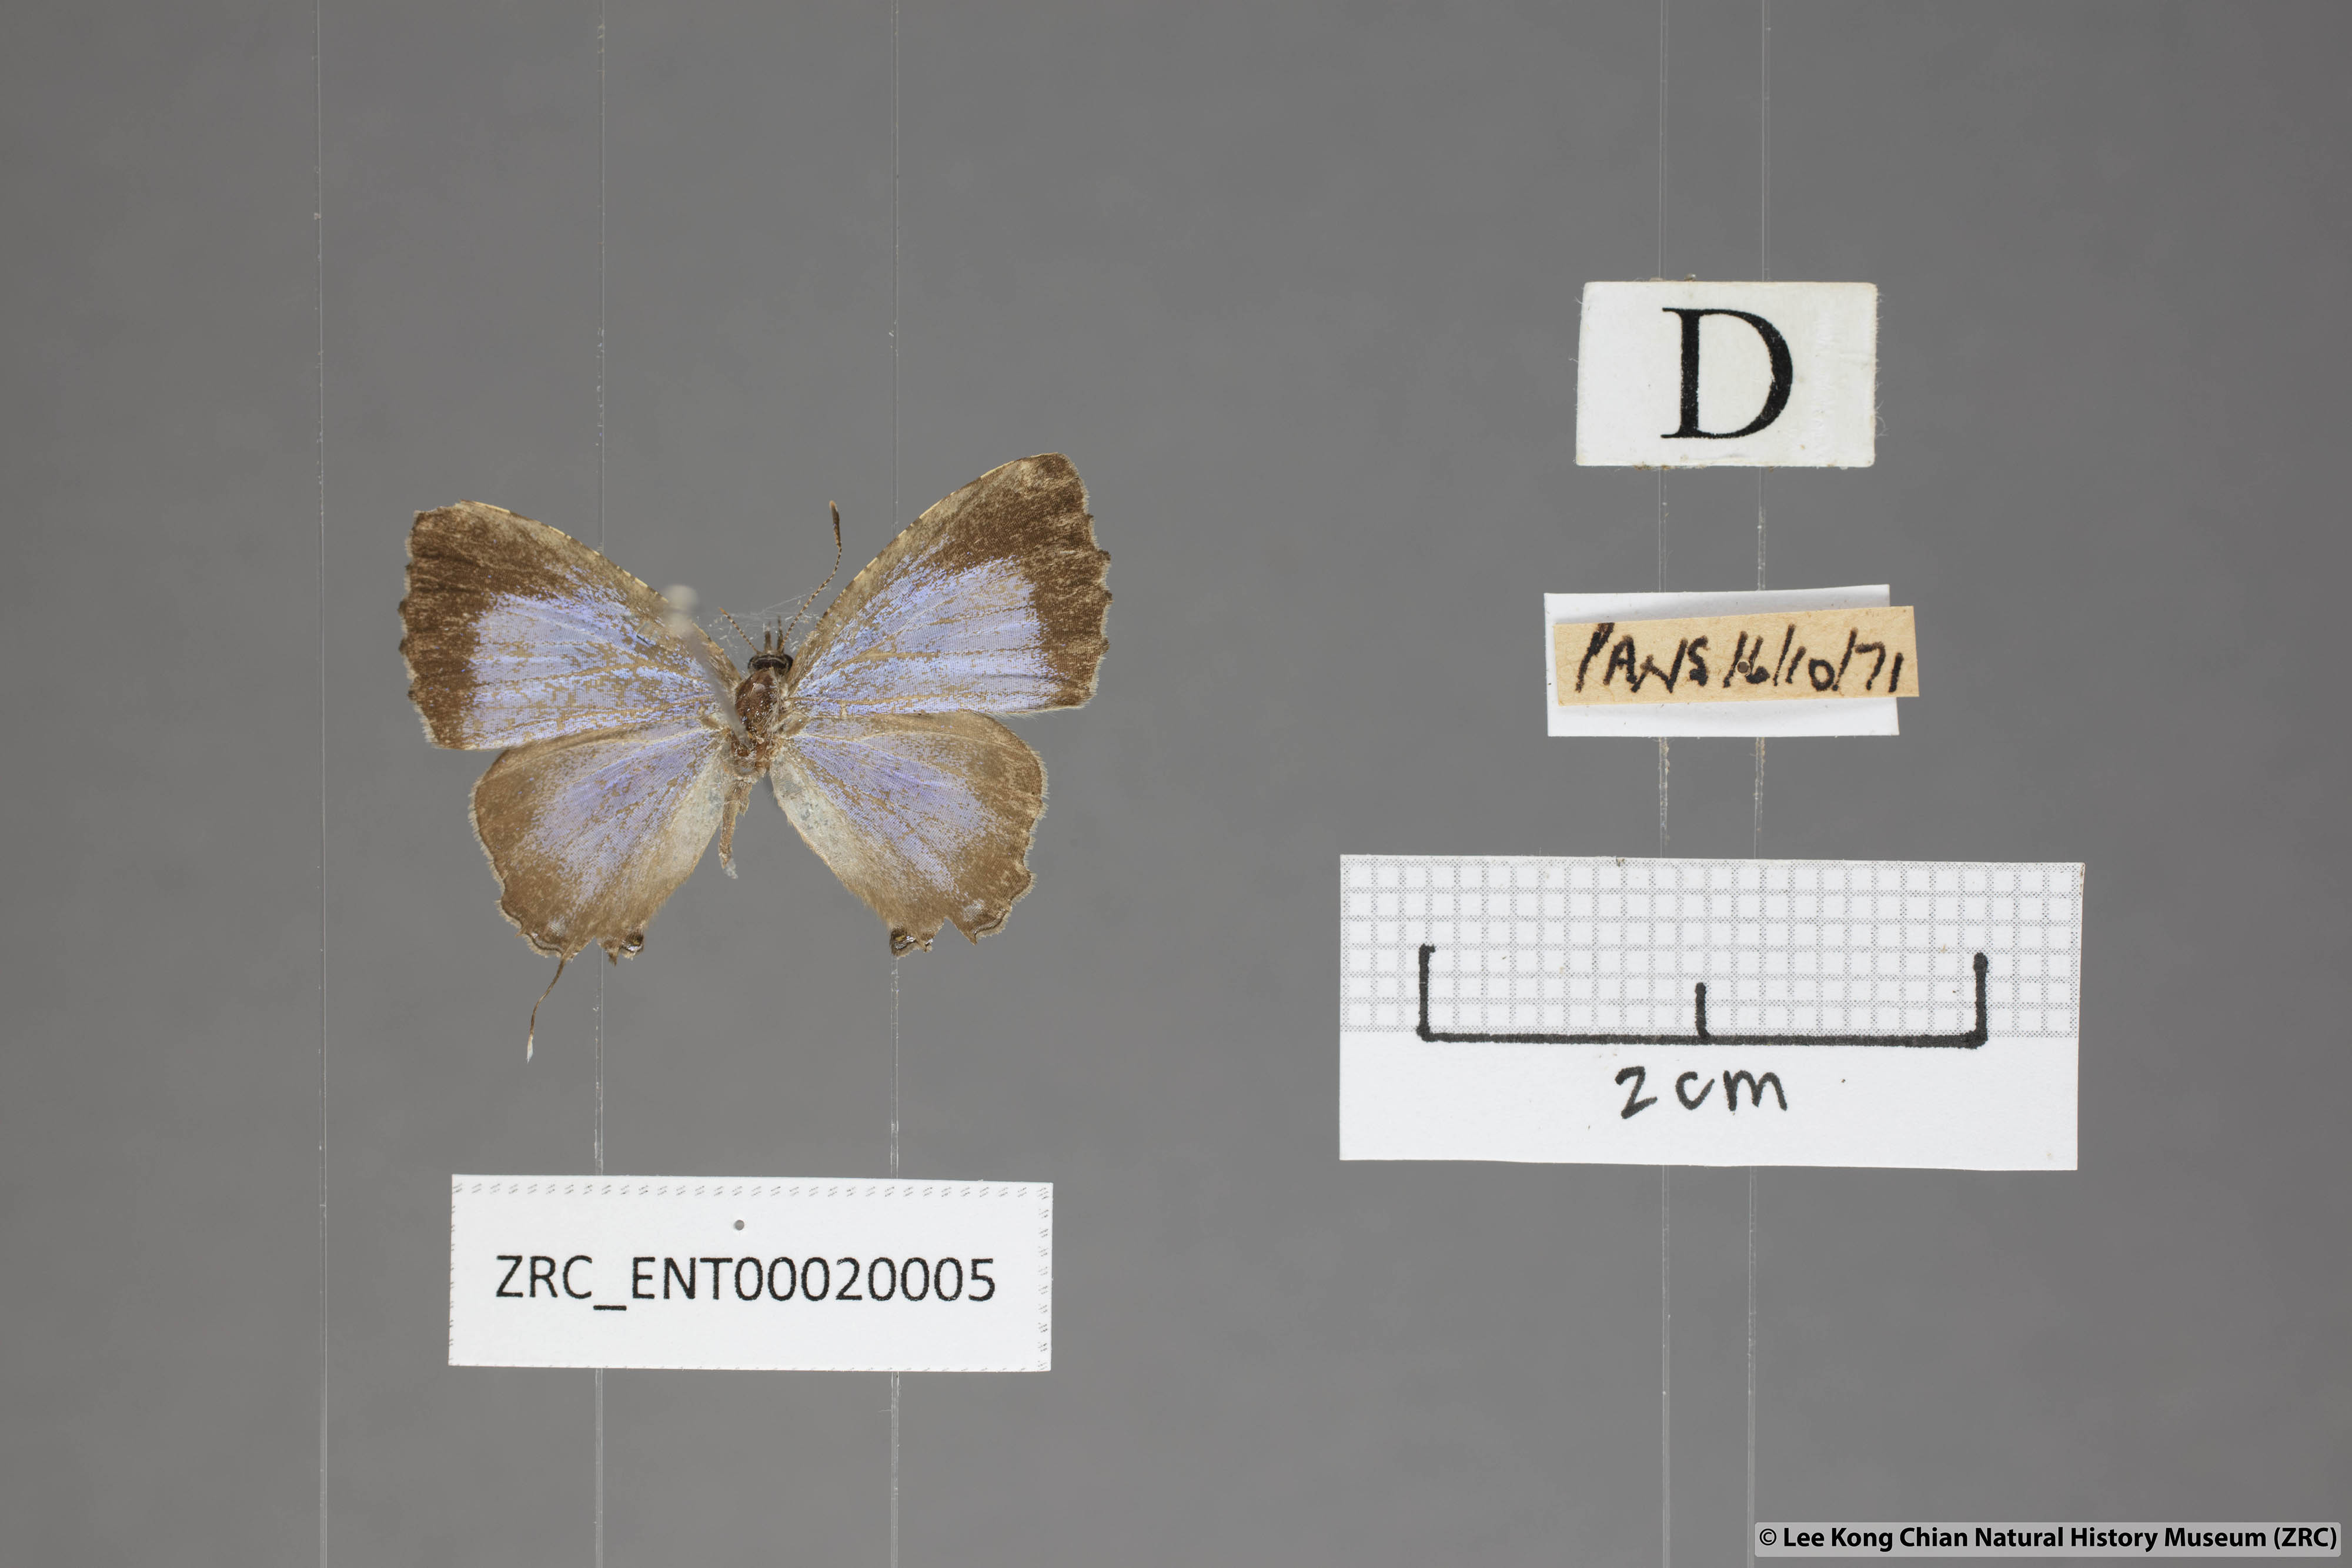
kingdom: Animalia
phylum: Arthropoda
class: Insecta
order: Lepidoptera
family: Lycaenidae
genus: Catapaecilma
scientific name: Catapaecilma elegans
